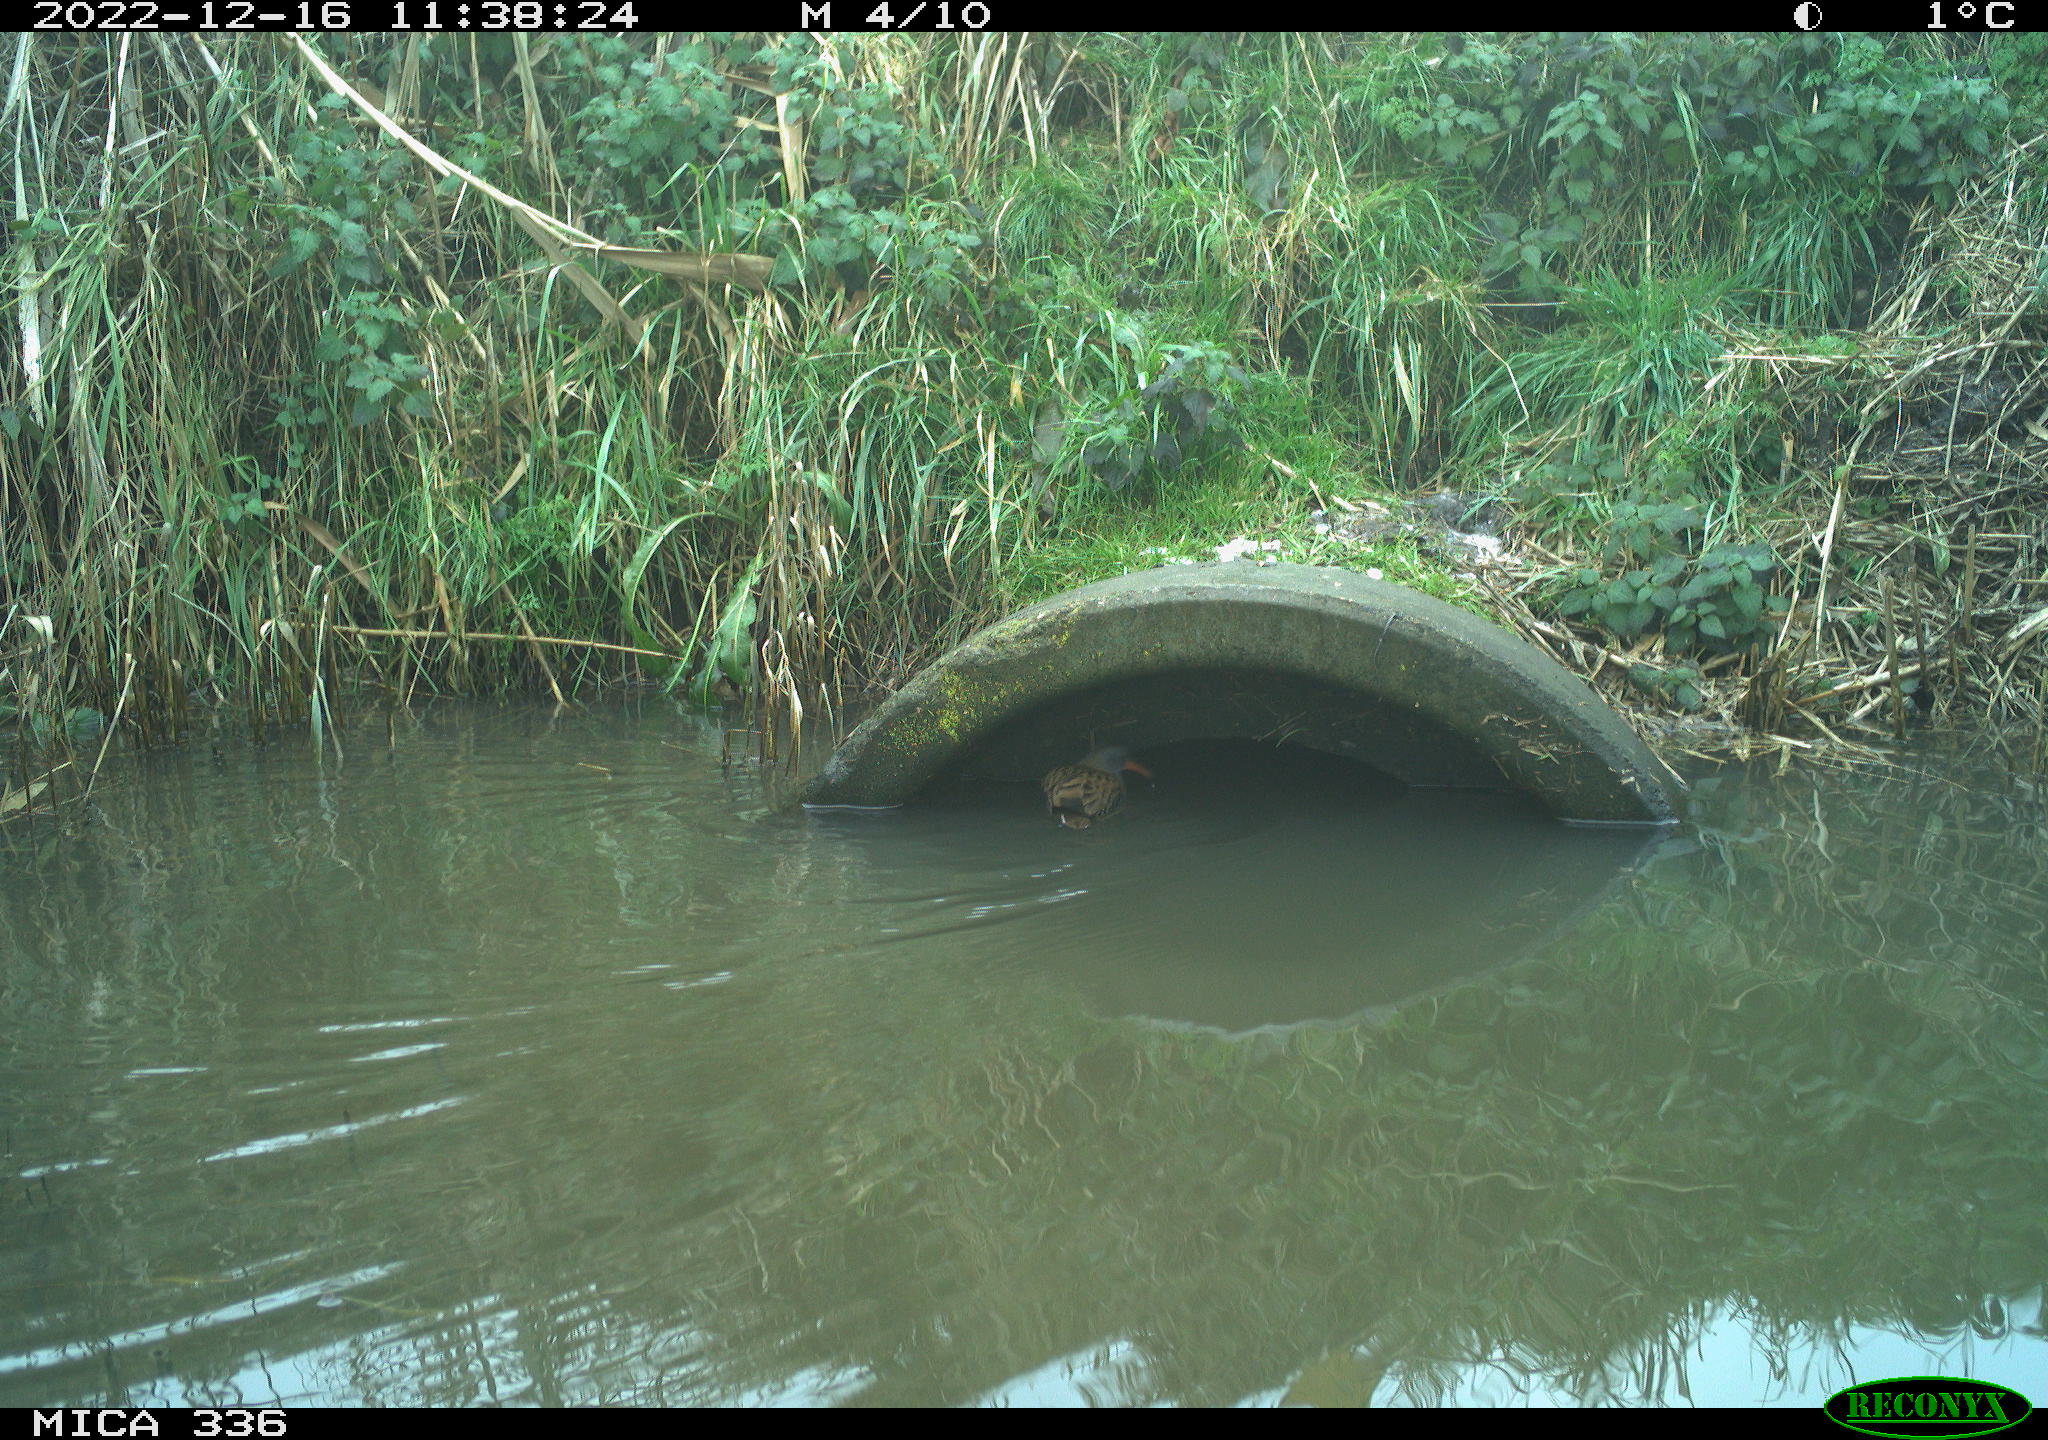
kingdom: Animalia
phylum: Chordata
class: Aves
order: Gruiformes
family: Rallidae
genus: Rallus
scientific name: Rallus aquaticus
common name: Water rail
